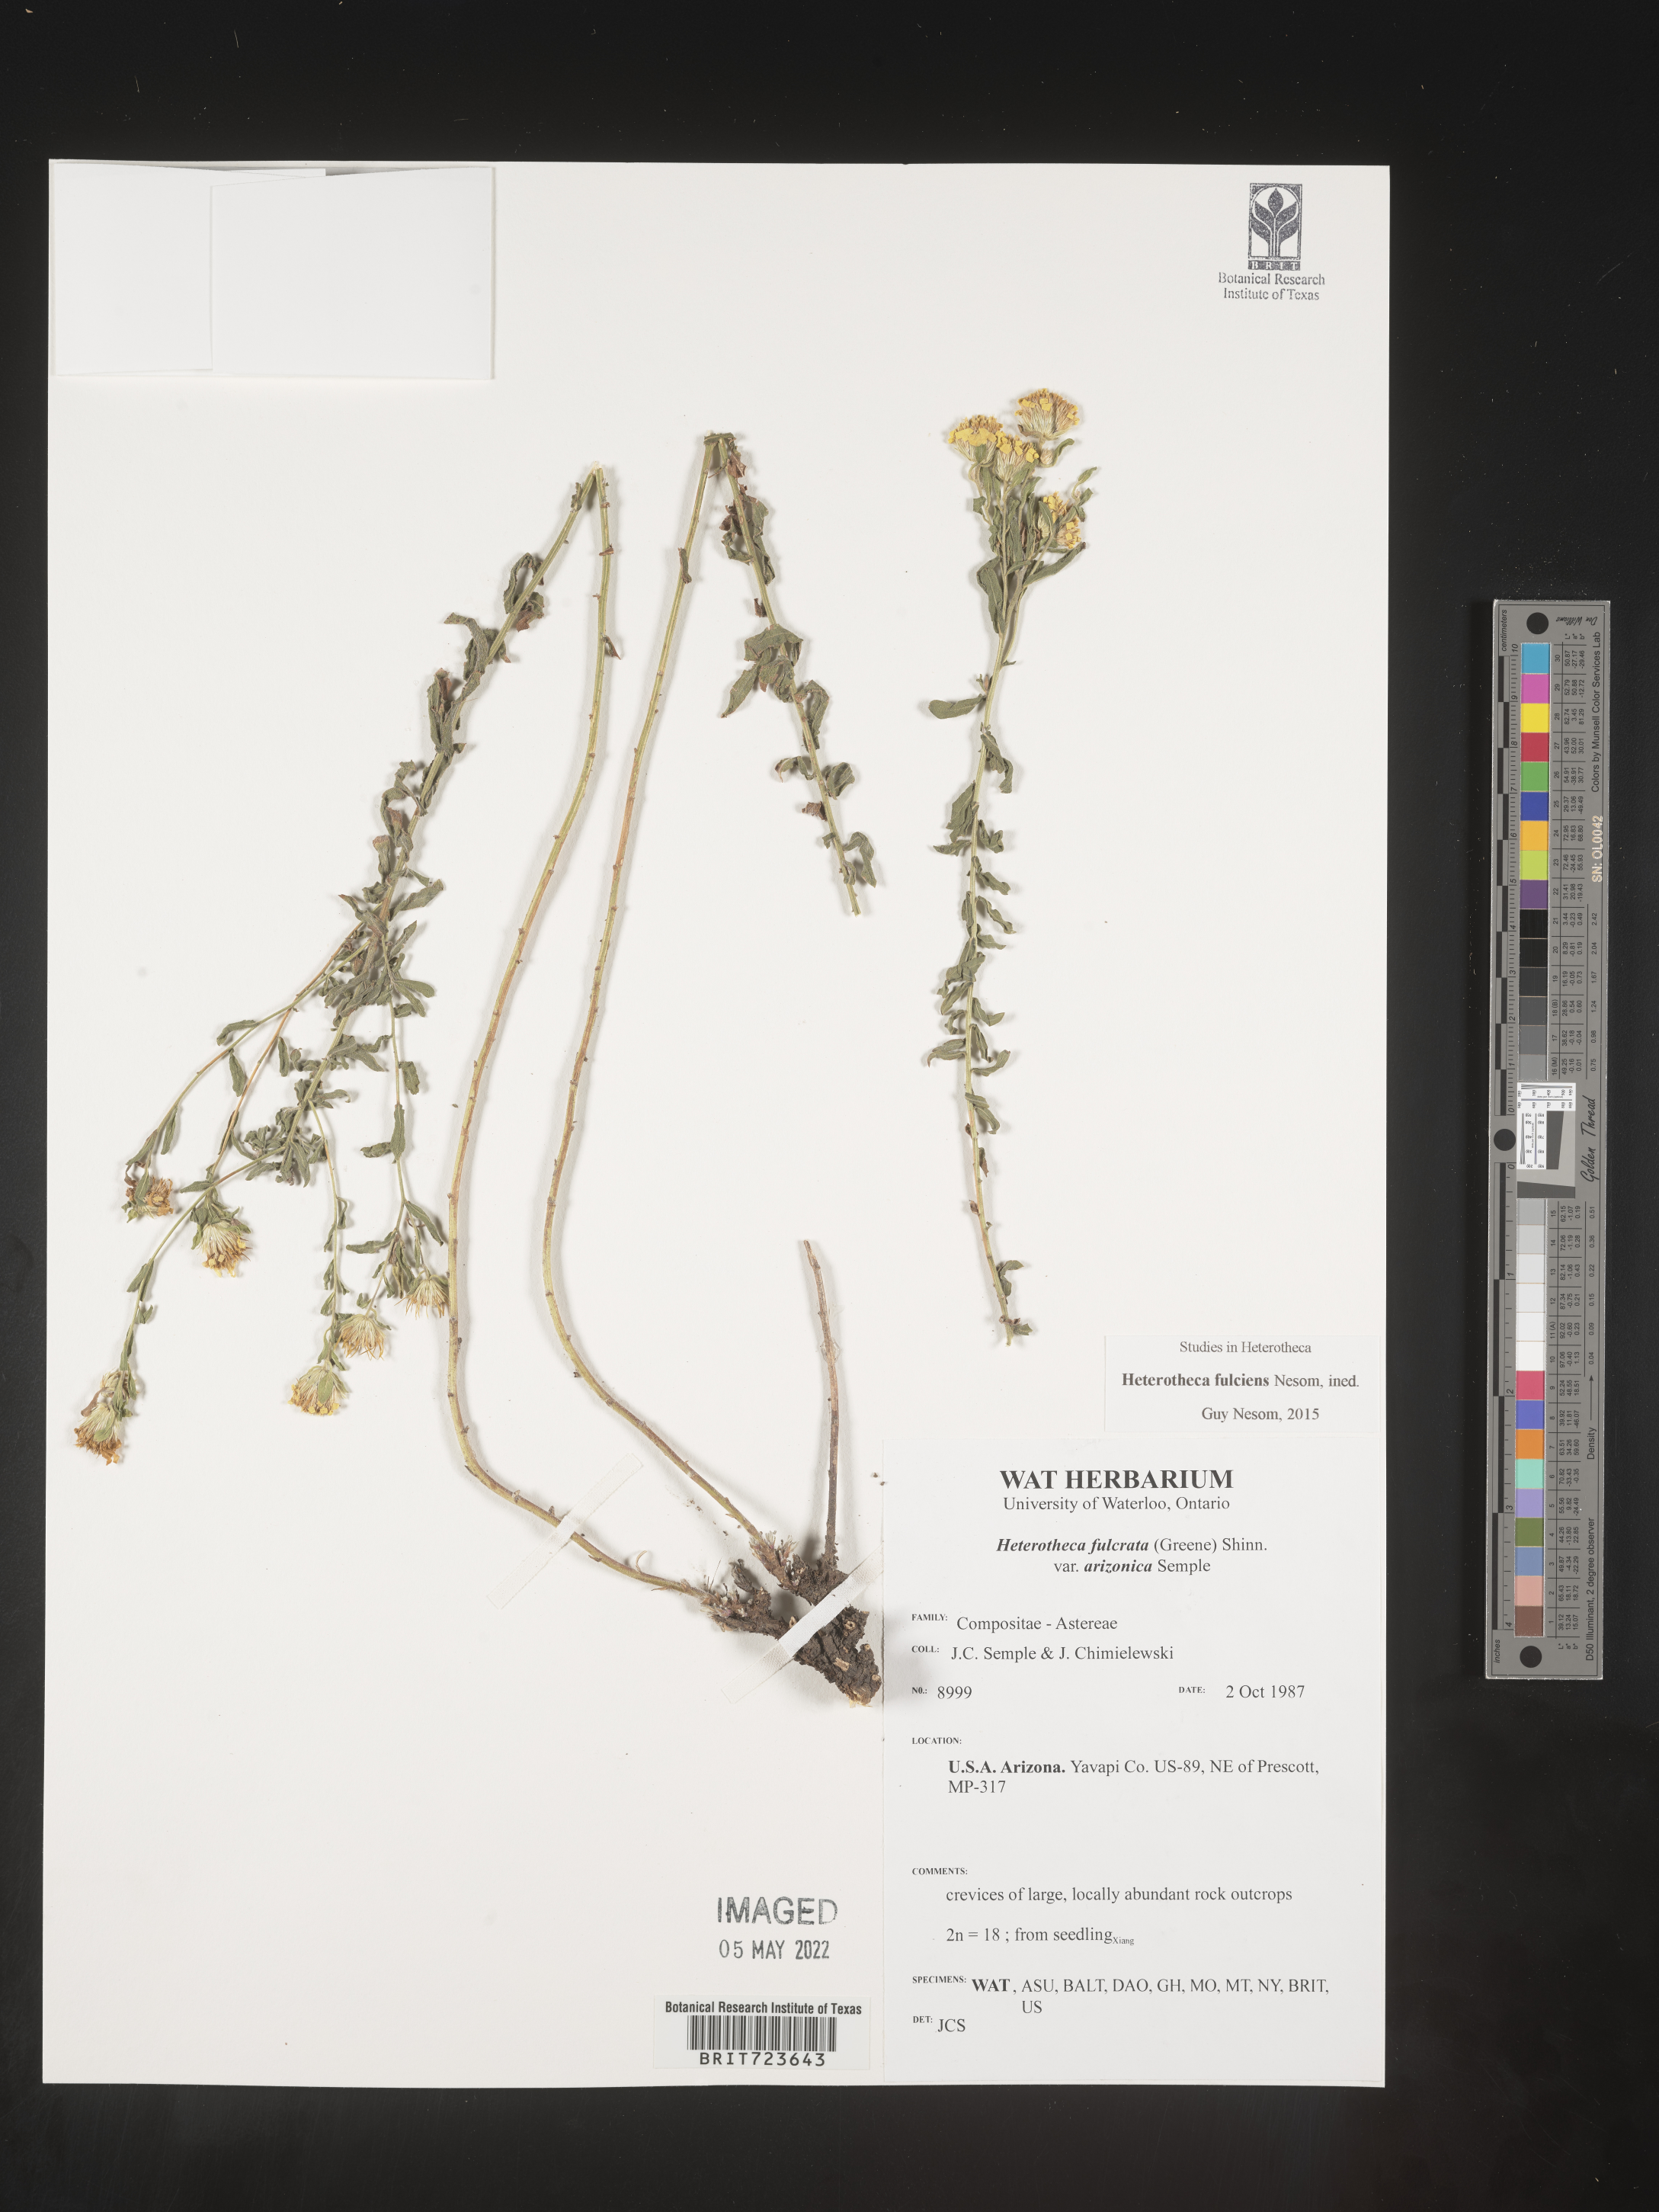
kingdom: Plantae
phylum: Tracheophyta
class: Magnoliopsida
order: Asterales
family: Asteraceae
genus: Heterotheca
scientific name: Heterotheca fulciens
